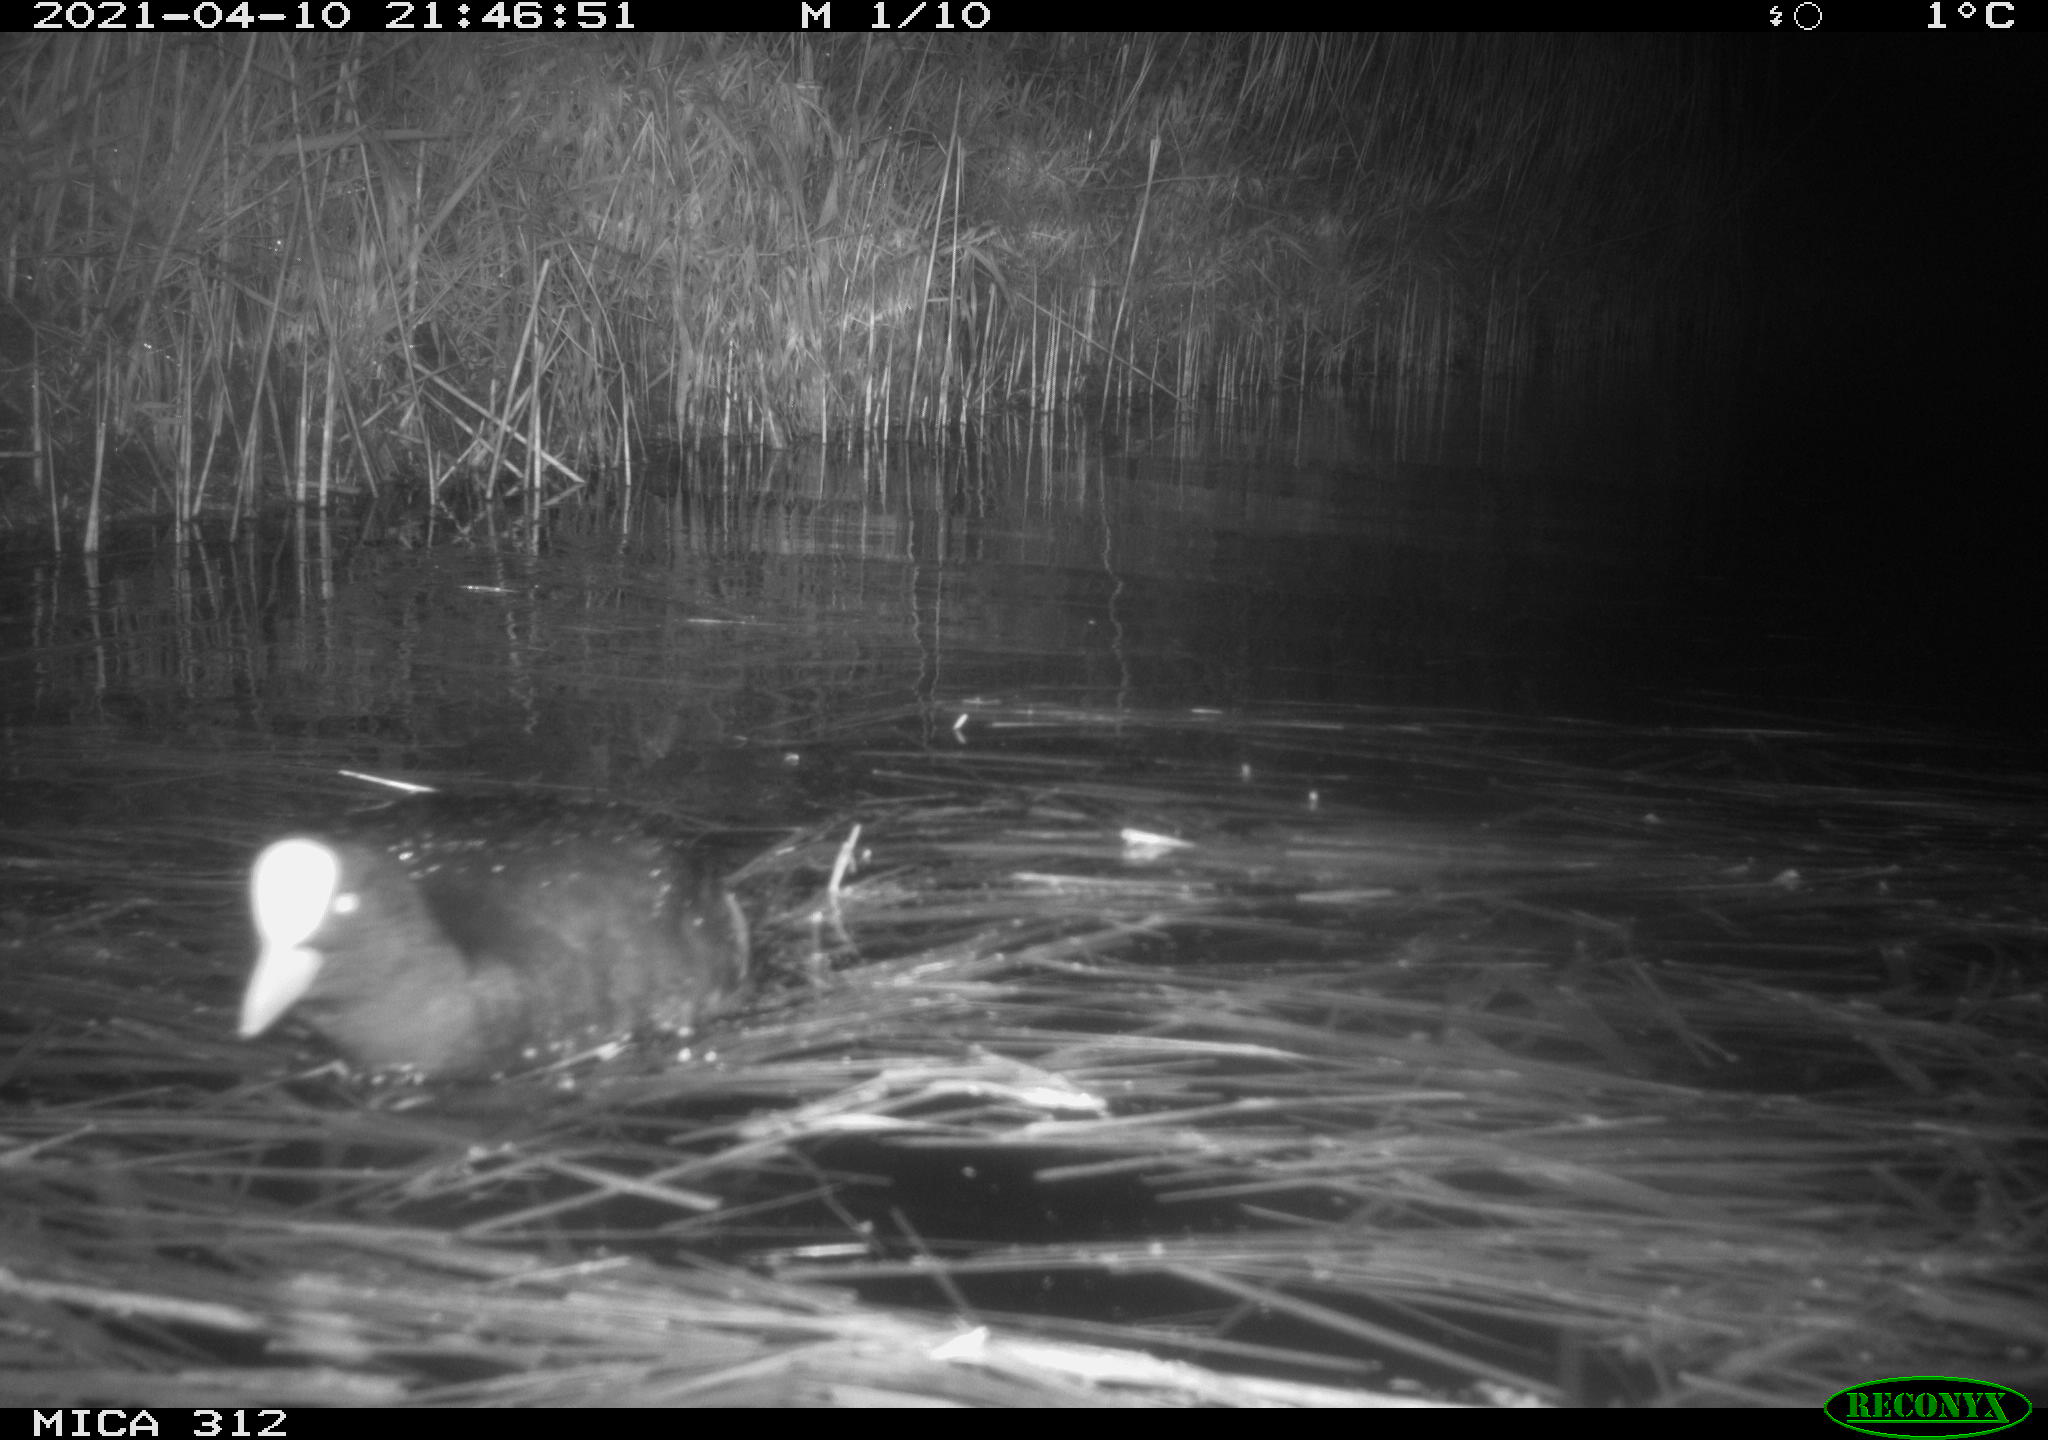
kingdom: Animalia
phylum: Chordata
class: Aves
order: Gruiformes
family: Rallidae
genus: Fulica
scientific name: Fulica atra
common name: Eurasian coot
